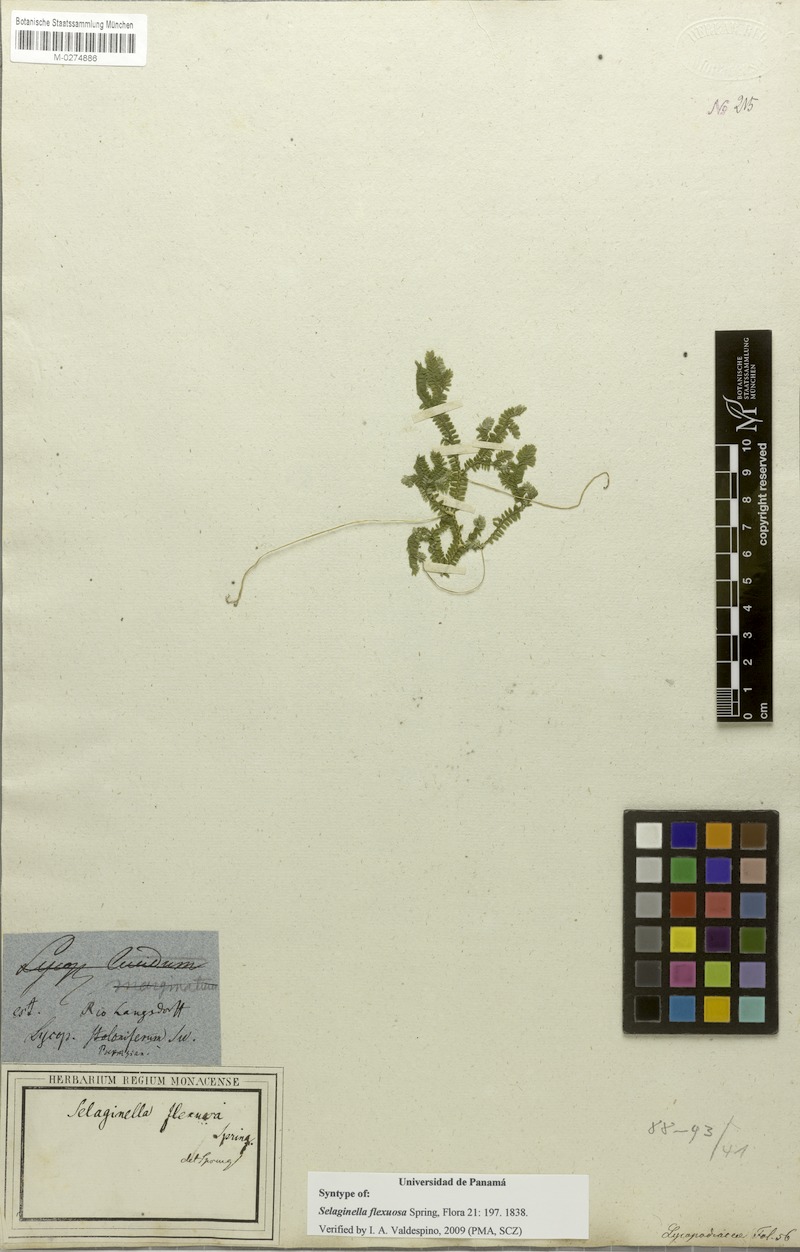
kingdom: Plantae
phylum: Tracheophyta
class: Lycopodiopsida
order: Selaginellales
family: Selaginellaceae
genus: Selaginella
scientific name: Selaginella flexuosa
